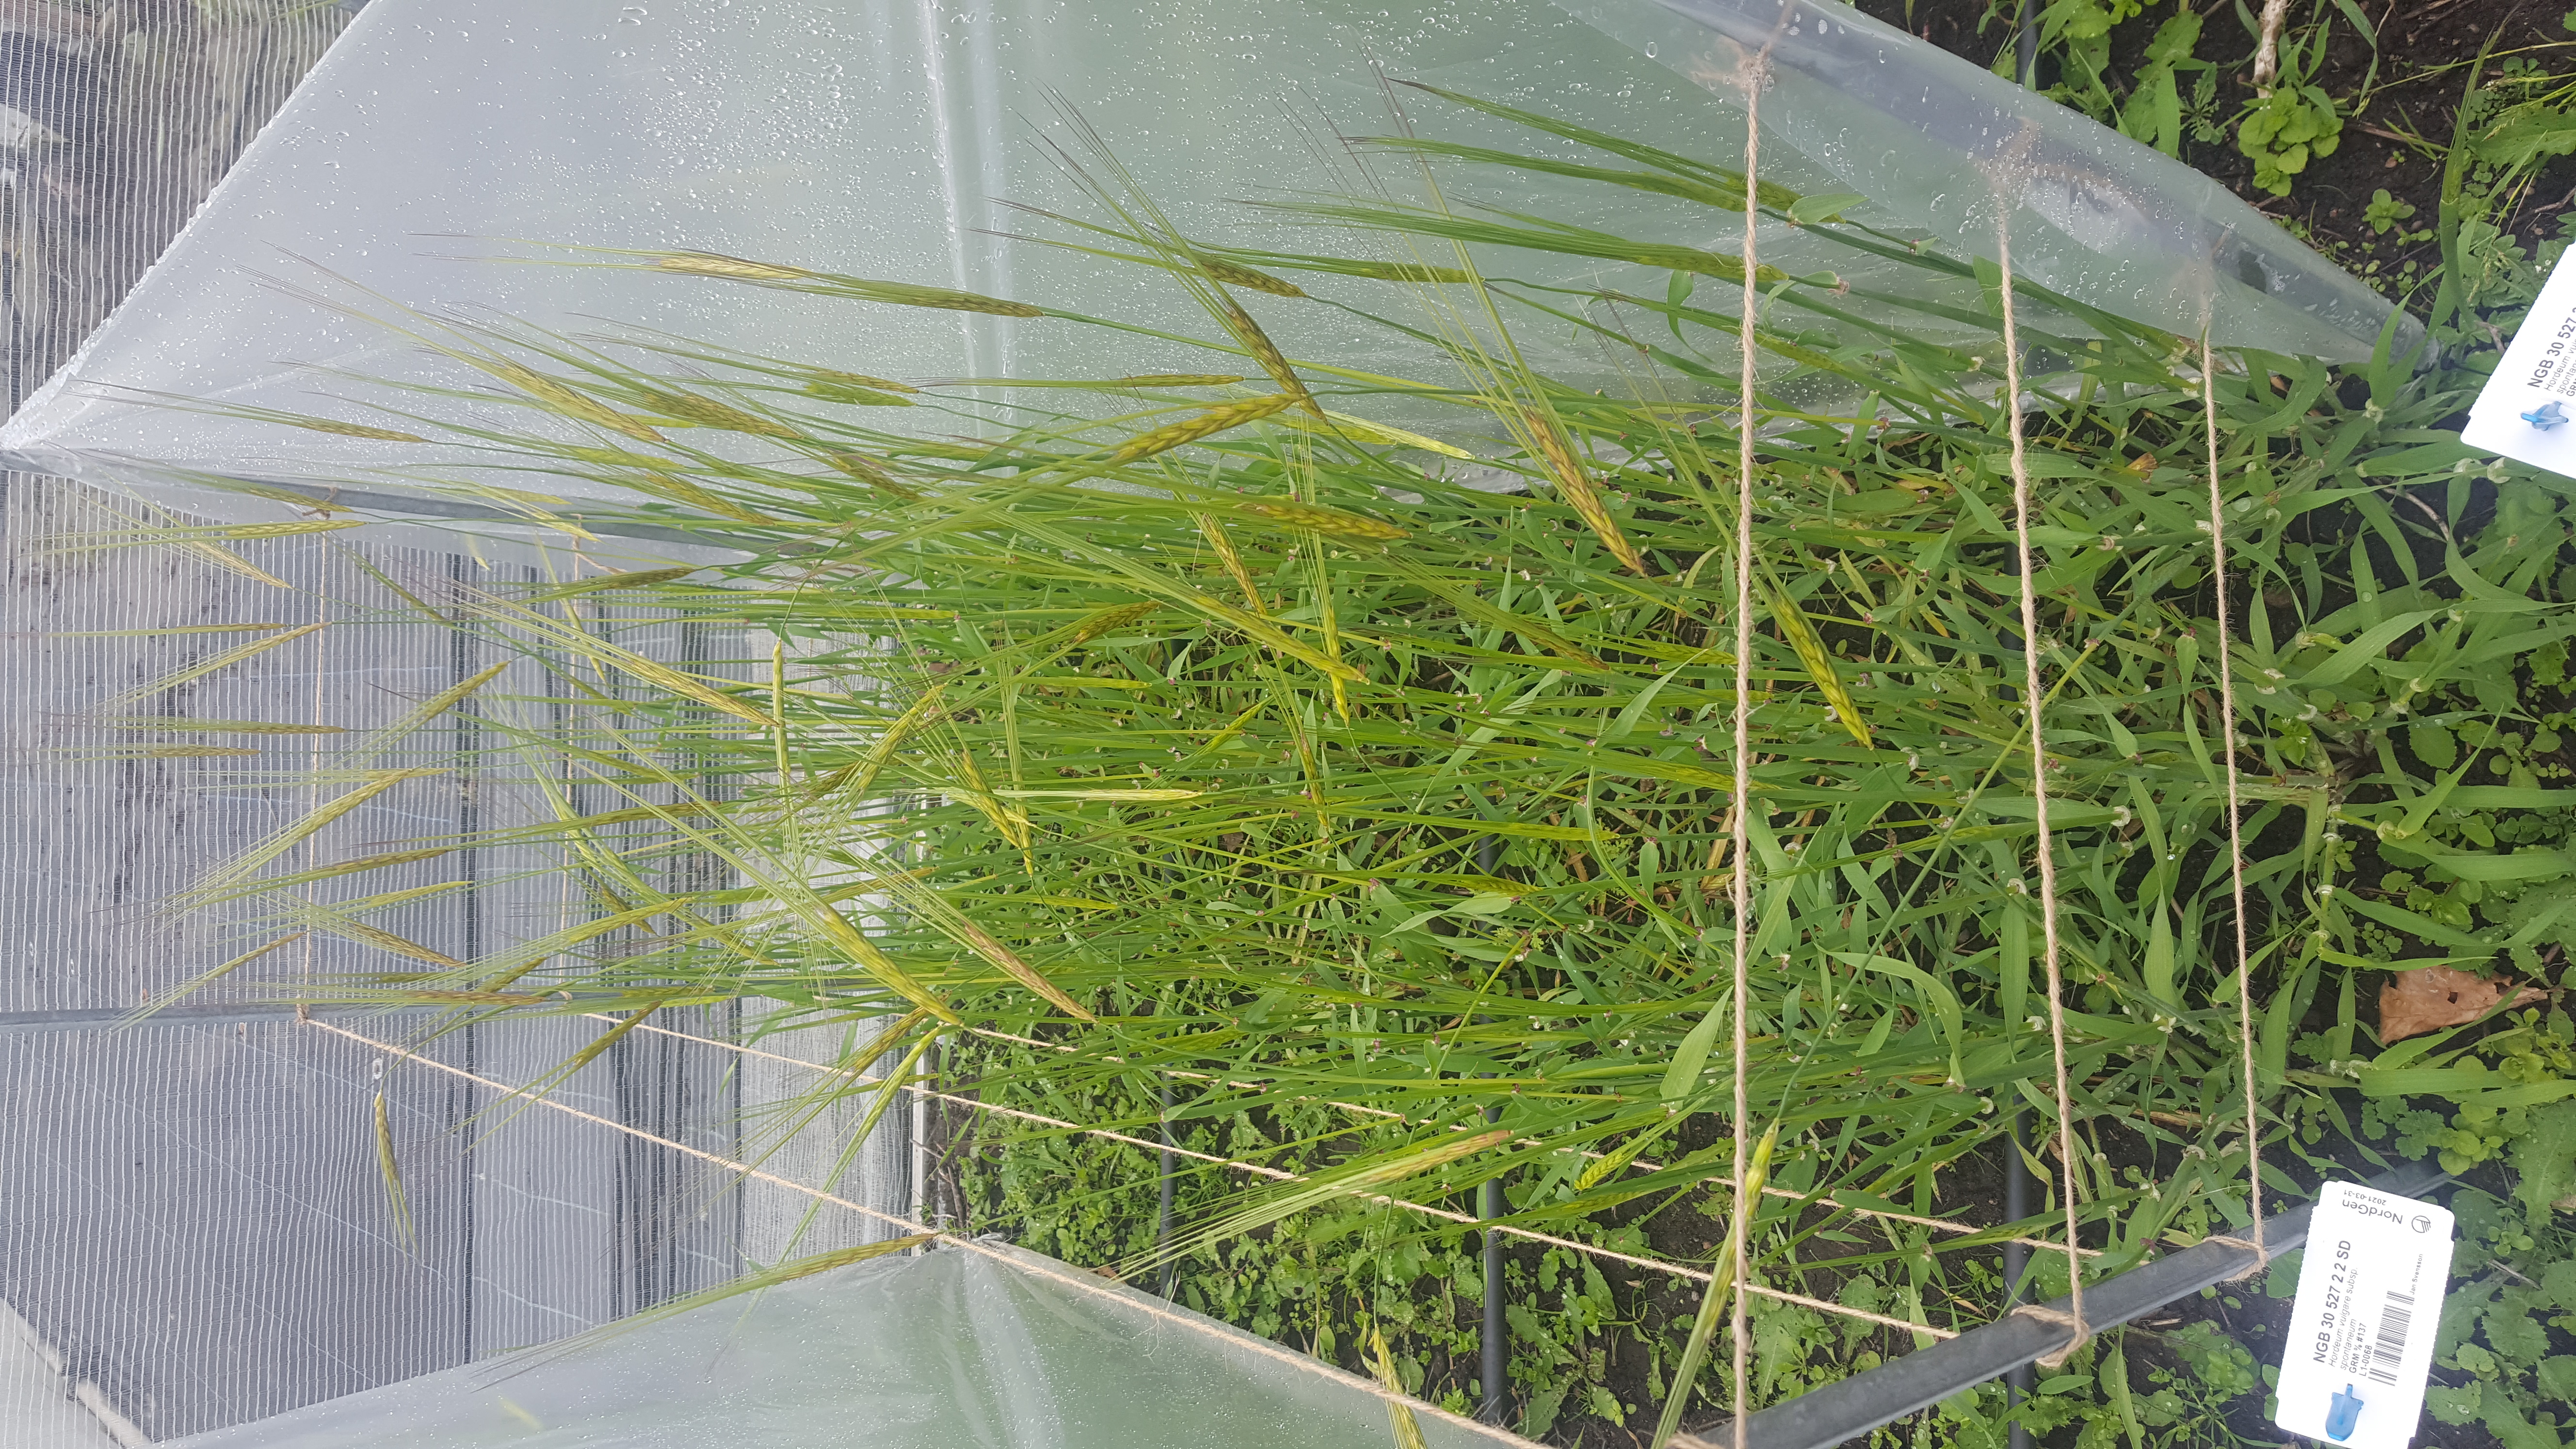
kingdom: Plantae
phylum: Tracheophyta
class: Liliopsida
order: Poales
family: Poaceae
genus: Hordeum
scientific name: Hordeum spontaneum
